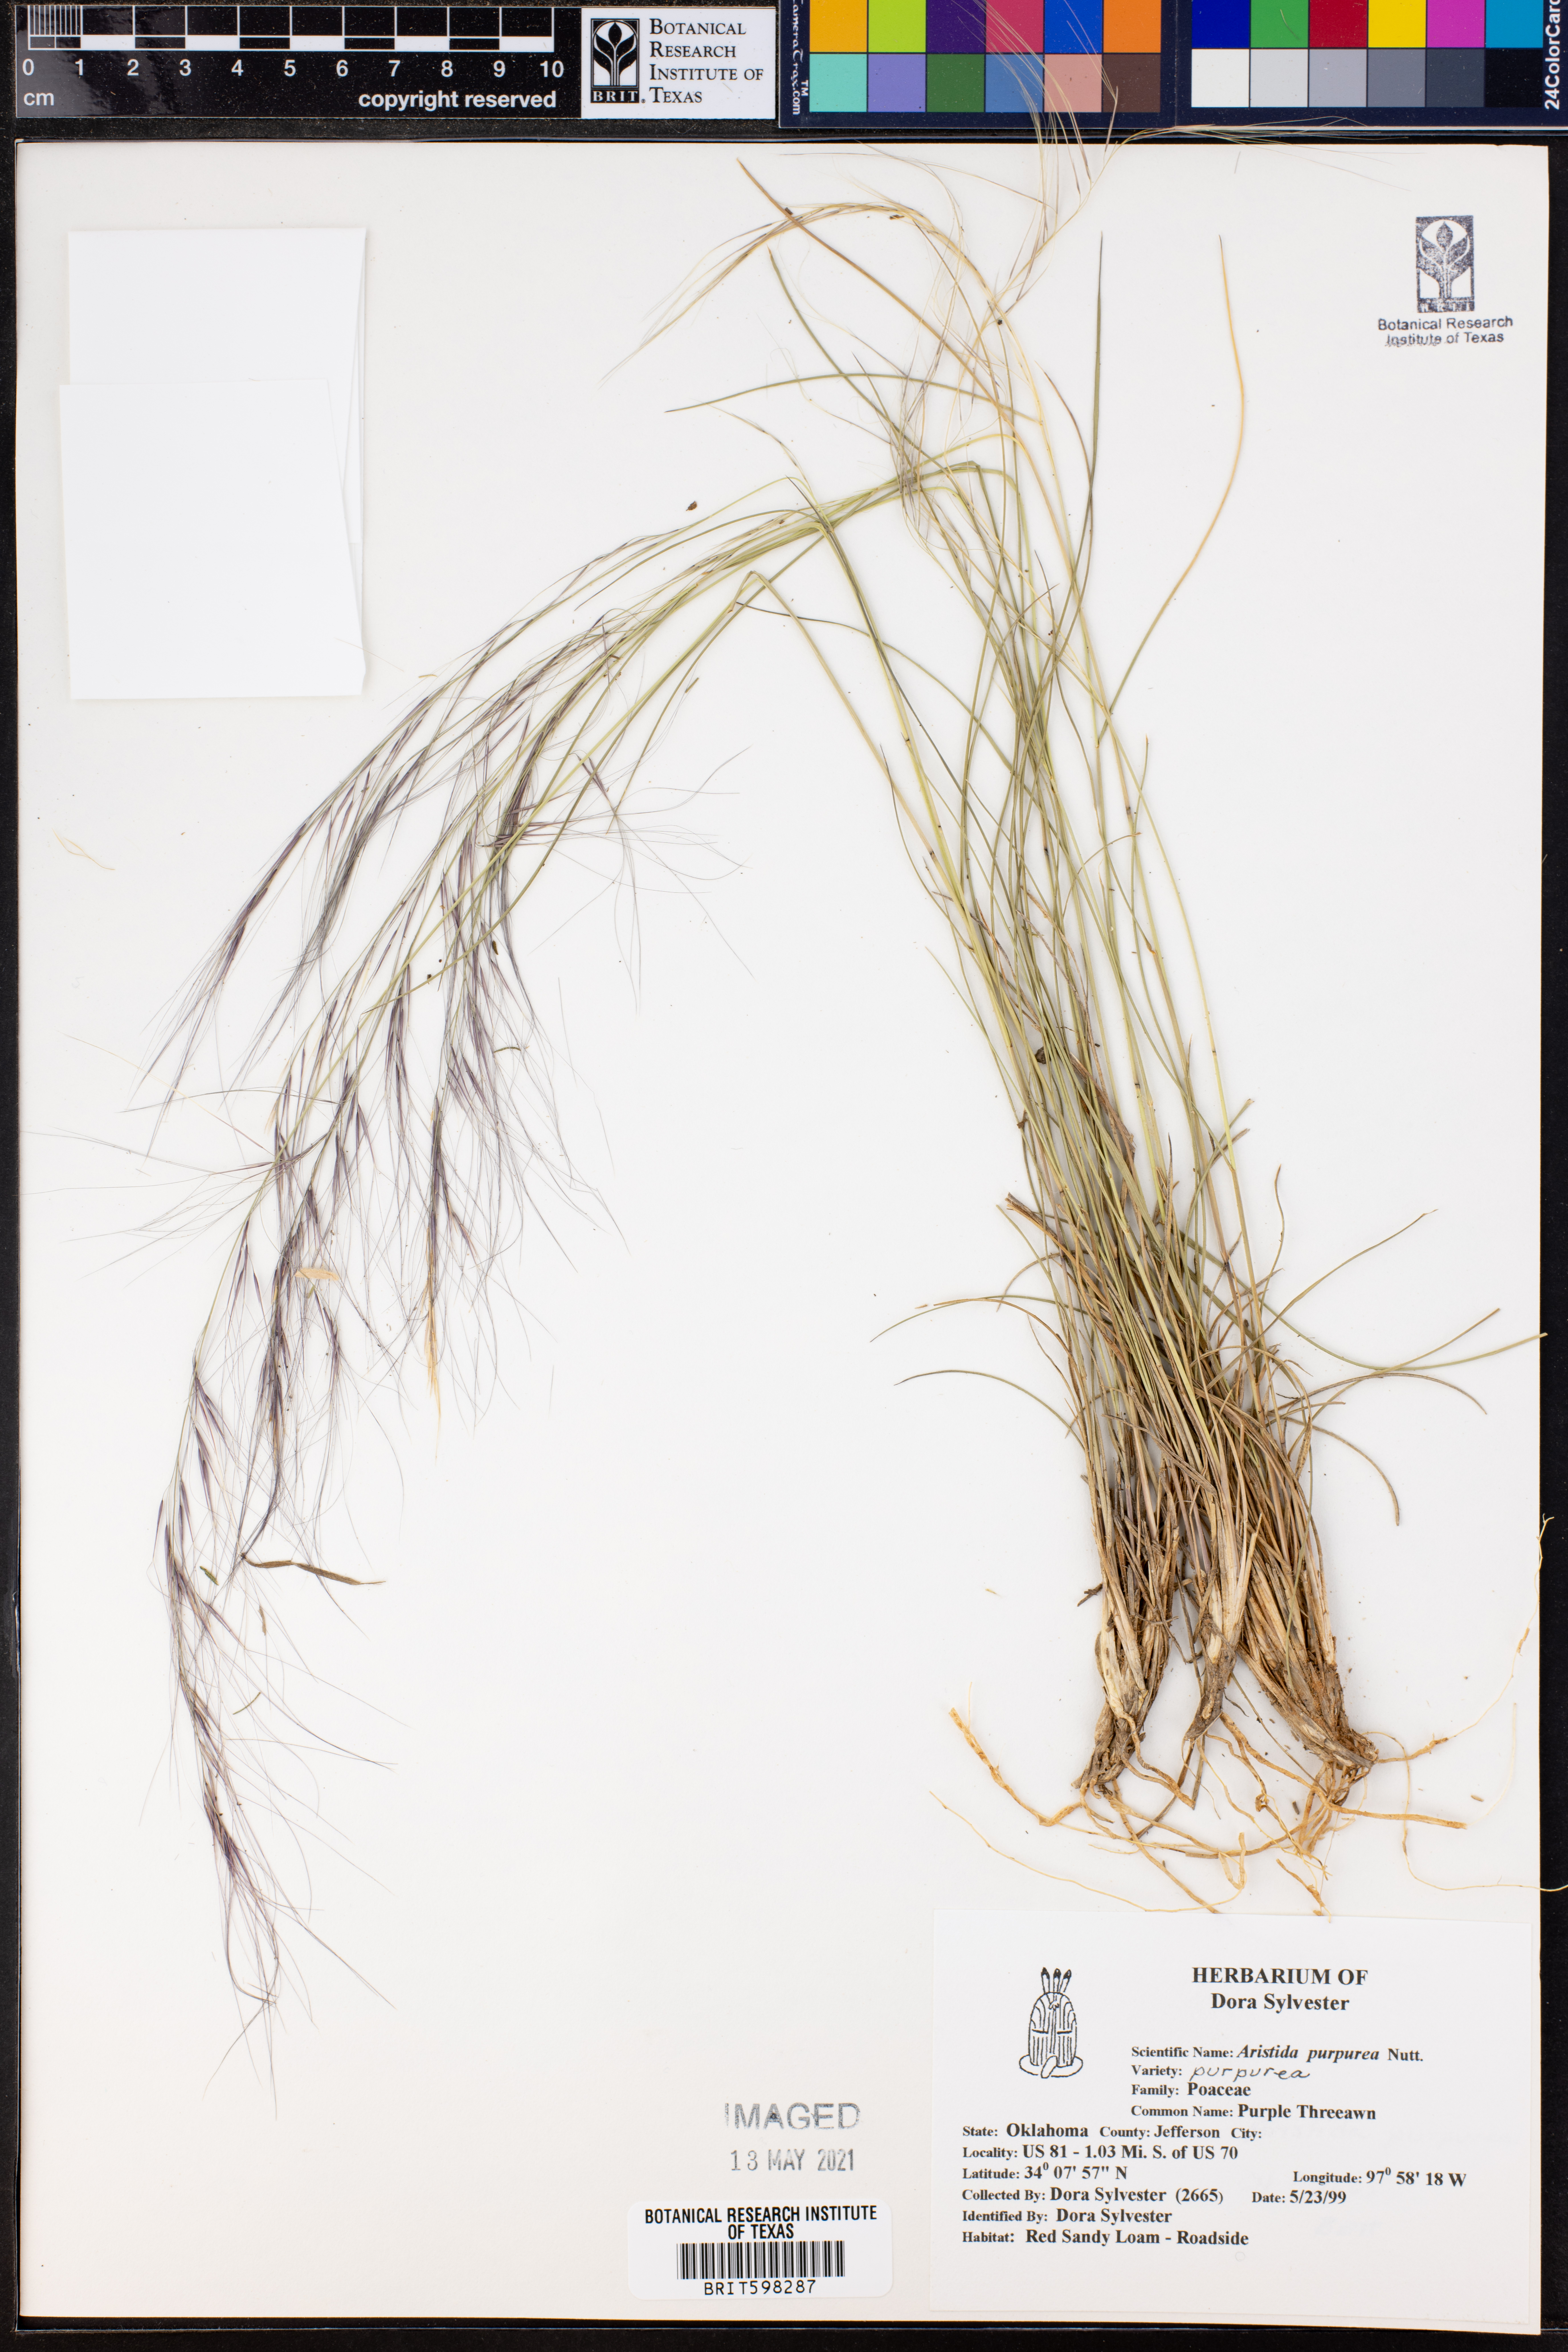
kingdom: Plantae
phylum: Tracheophyta
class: Liliopsida
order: Poales
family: Poaceae
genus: Aristida
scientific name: Aristida purpurea
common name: Purple threeawn
